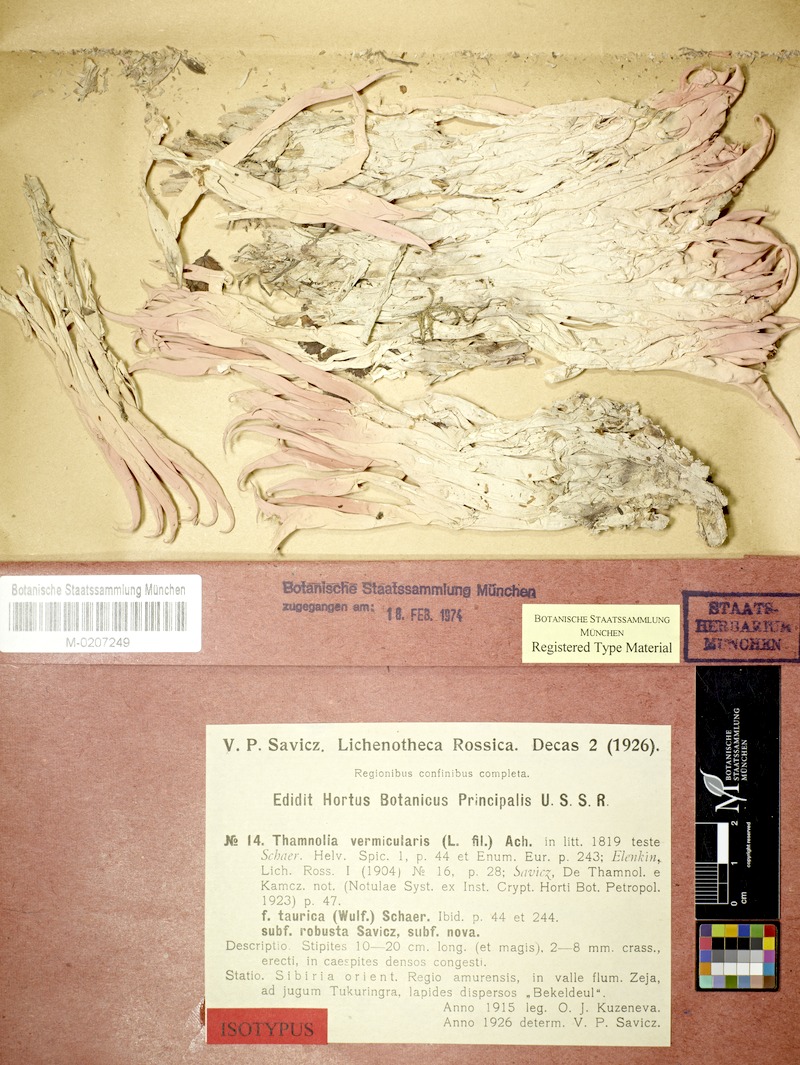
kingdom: Fungi
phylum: Ascomycota
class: Lecanoromycetes
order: Pertusariales
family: Icmadophilaceae
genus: Thamnolia
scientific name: Thamnolia vermicularis
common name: Whiteworm lichen
